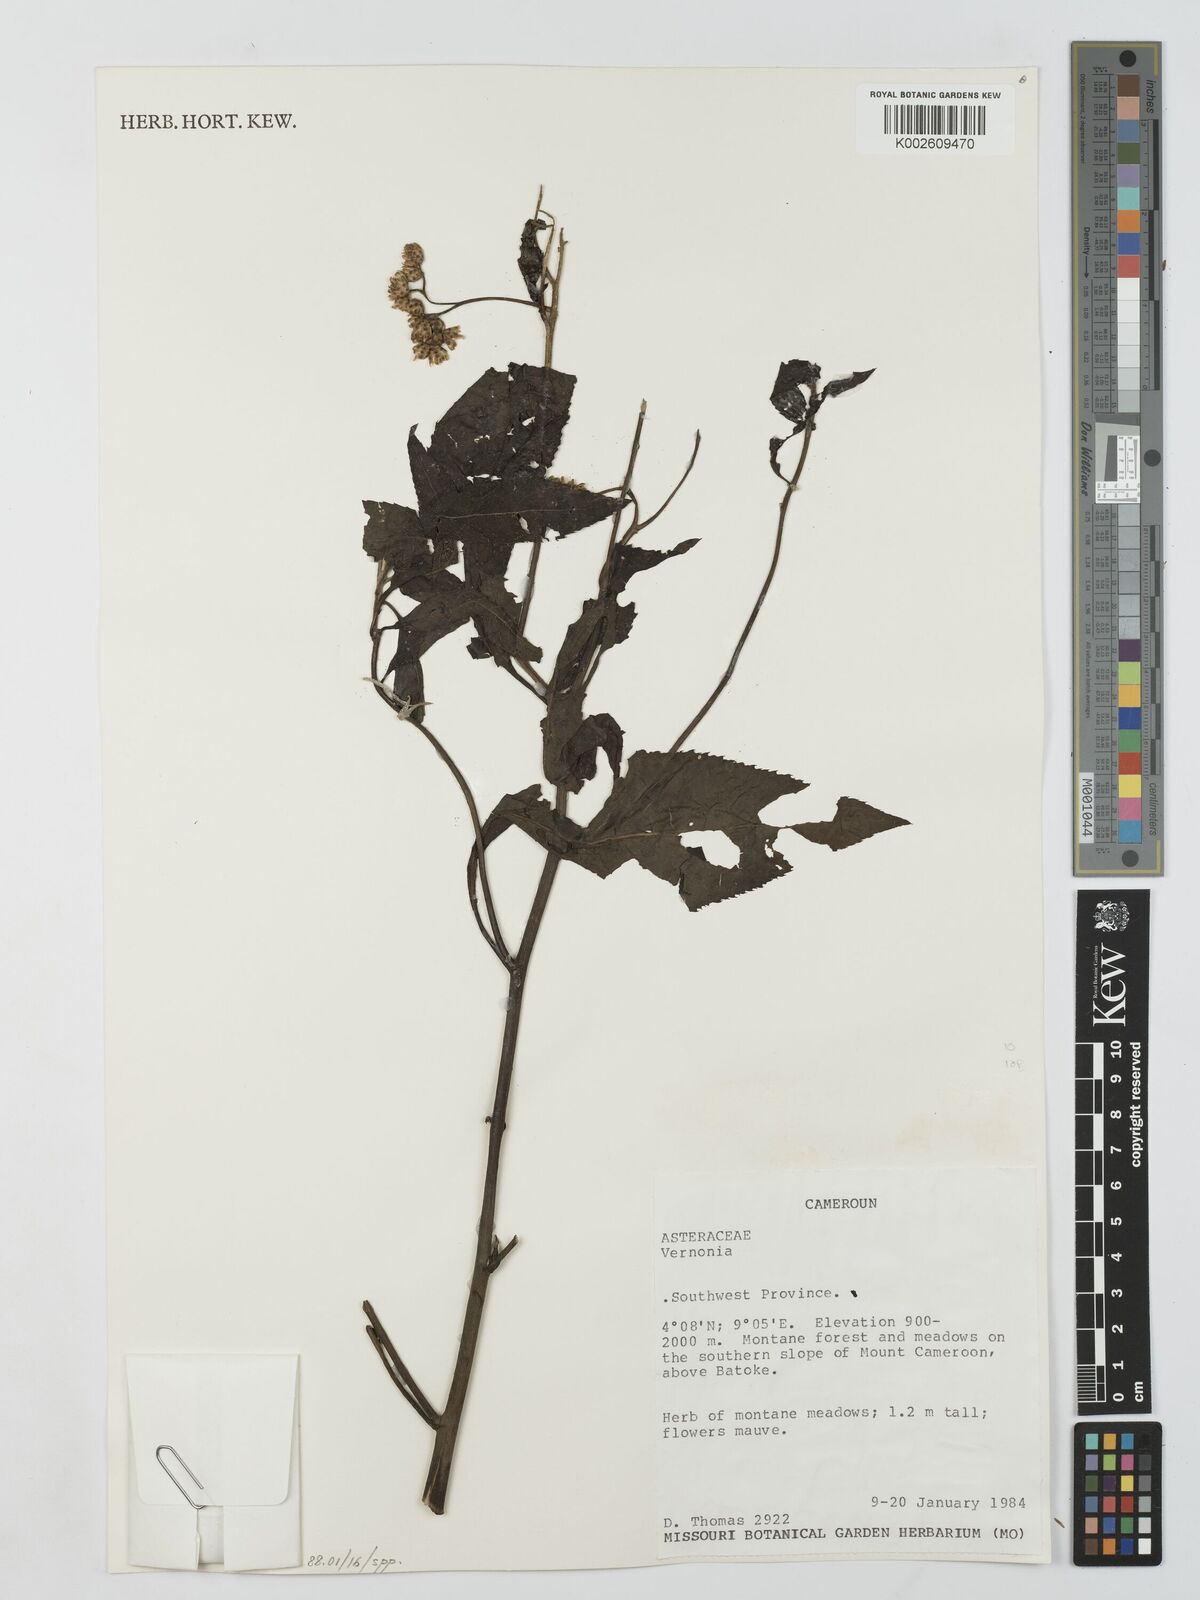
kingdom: Plantae
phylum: Tracheophyta
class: Magnoliopsida
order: Asterales
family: Asteraceae
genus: Vernonia
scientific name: Vernonia
